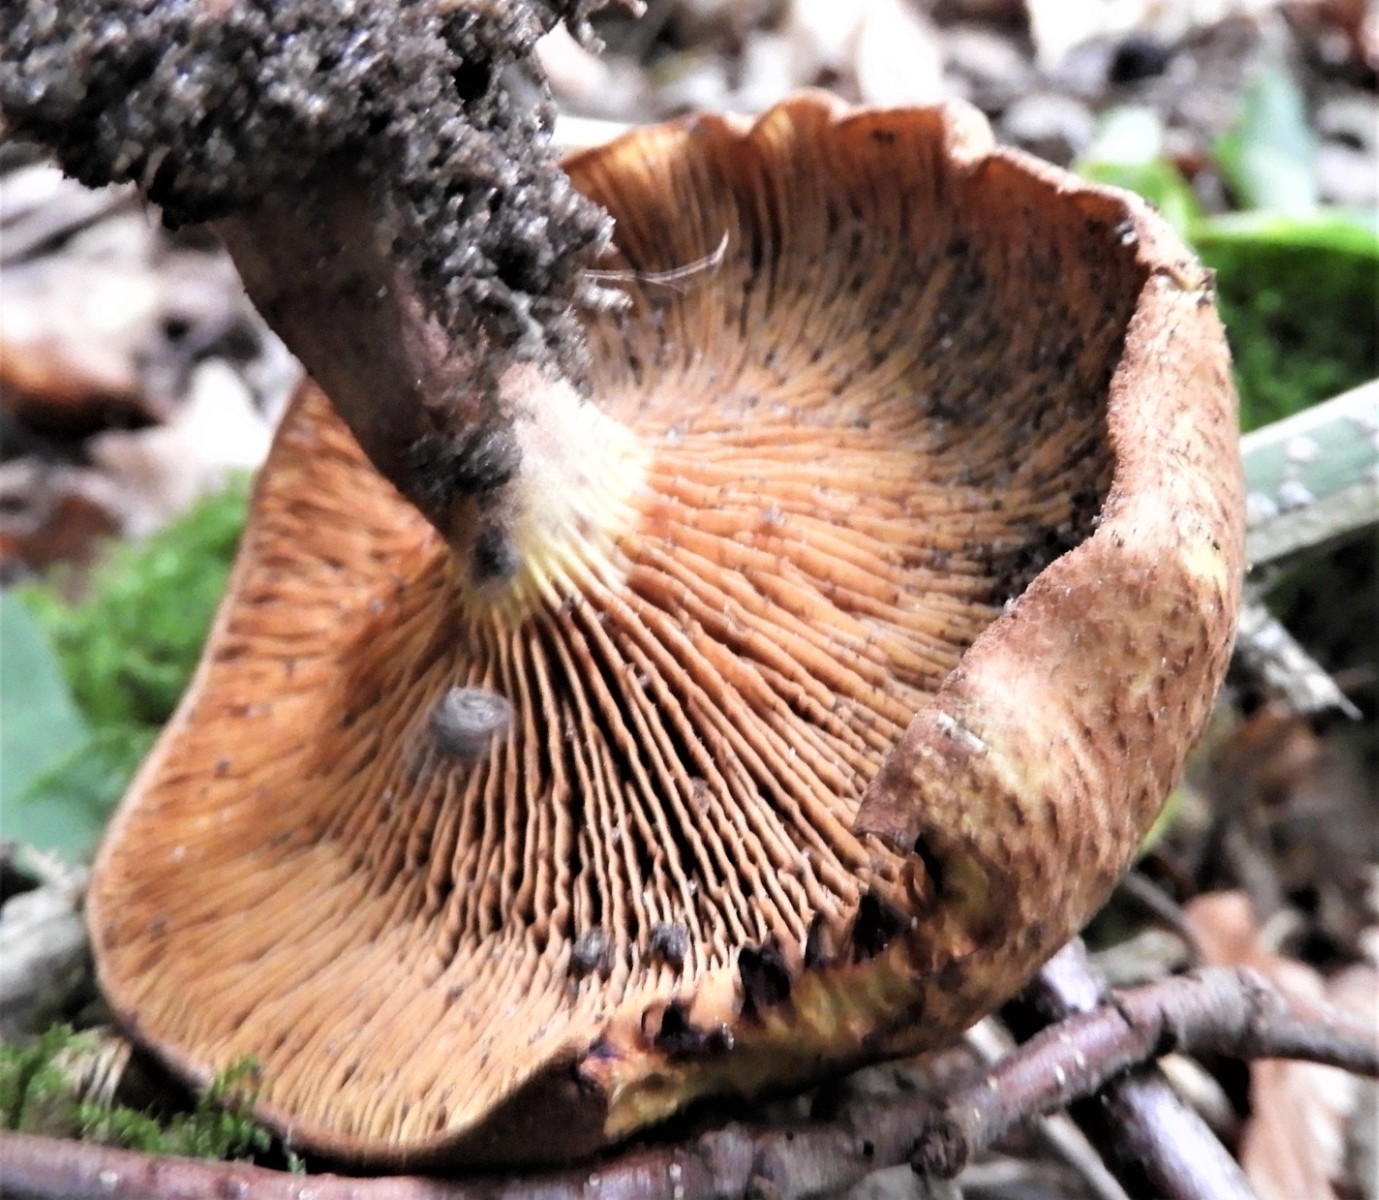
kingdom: Fungi
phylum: Basidiomycota
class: Agaricomycetes
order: Boletales
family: Paxillaceae
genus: Paxillus
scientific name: Paxillus rubicundulus
